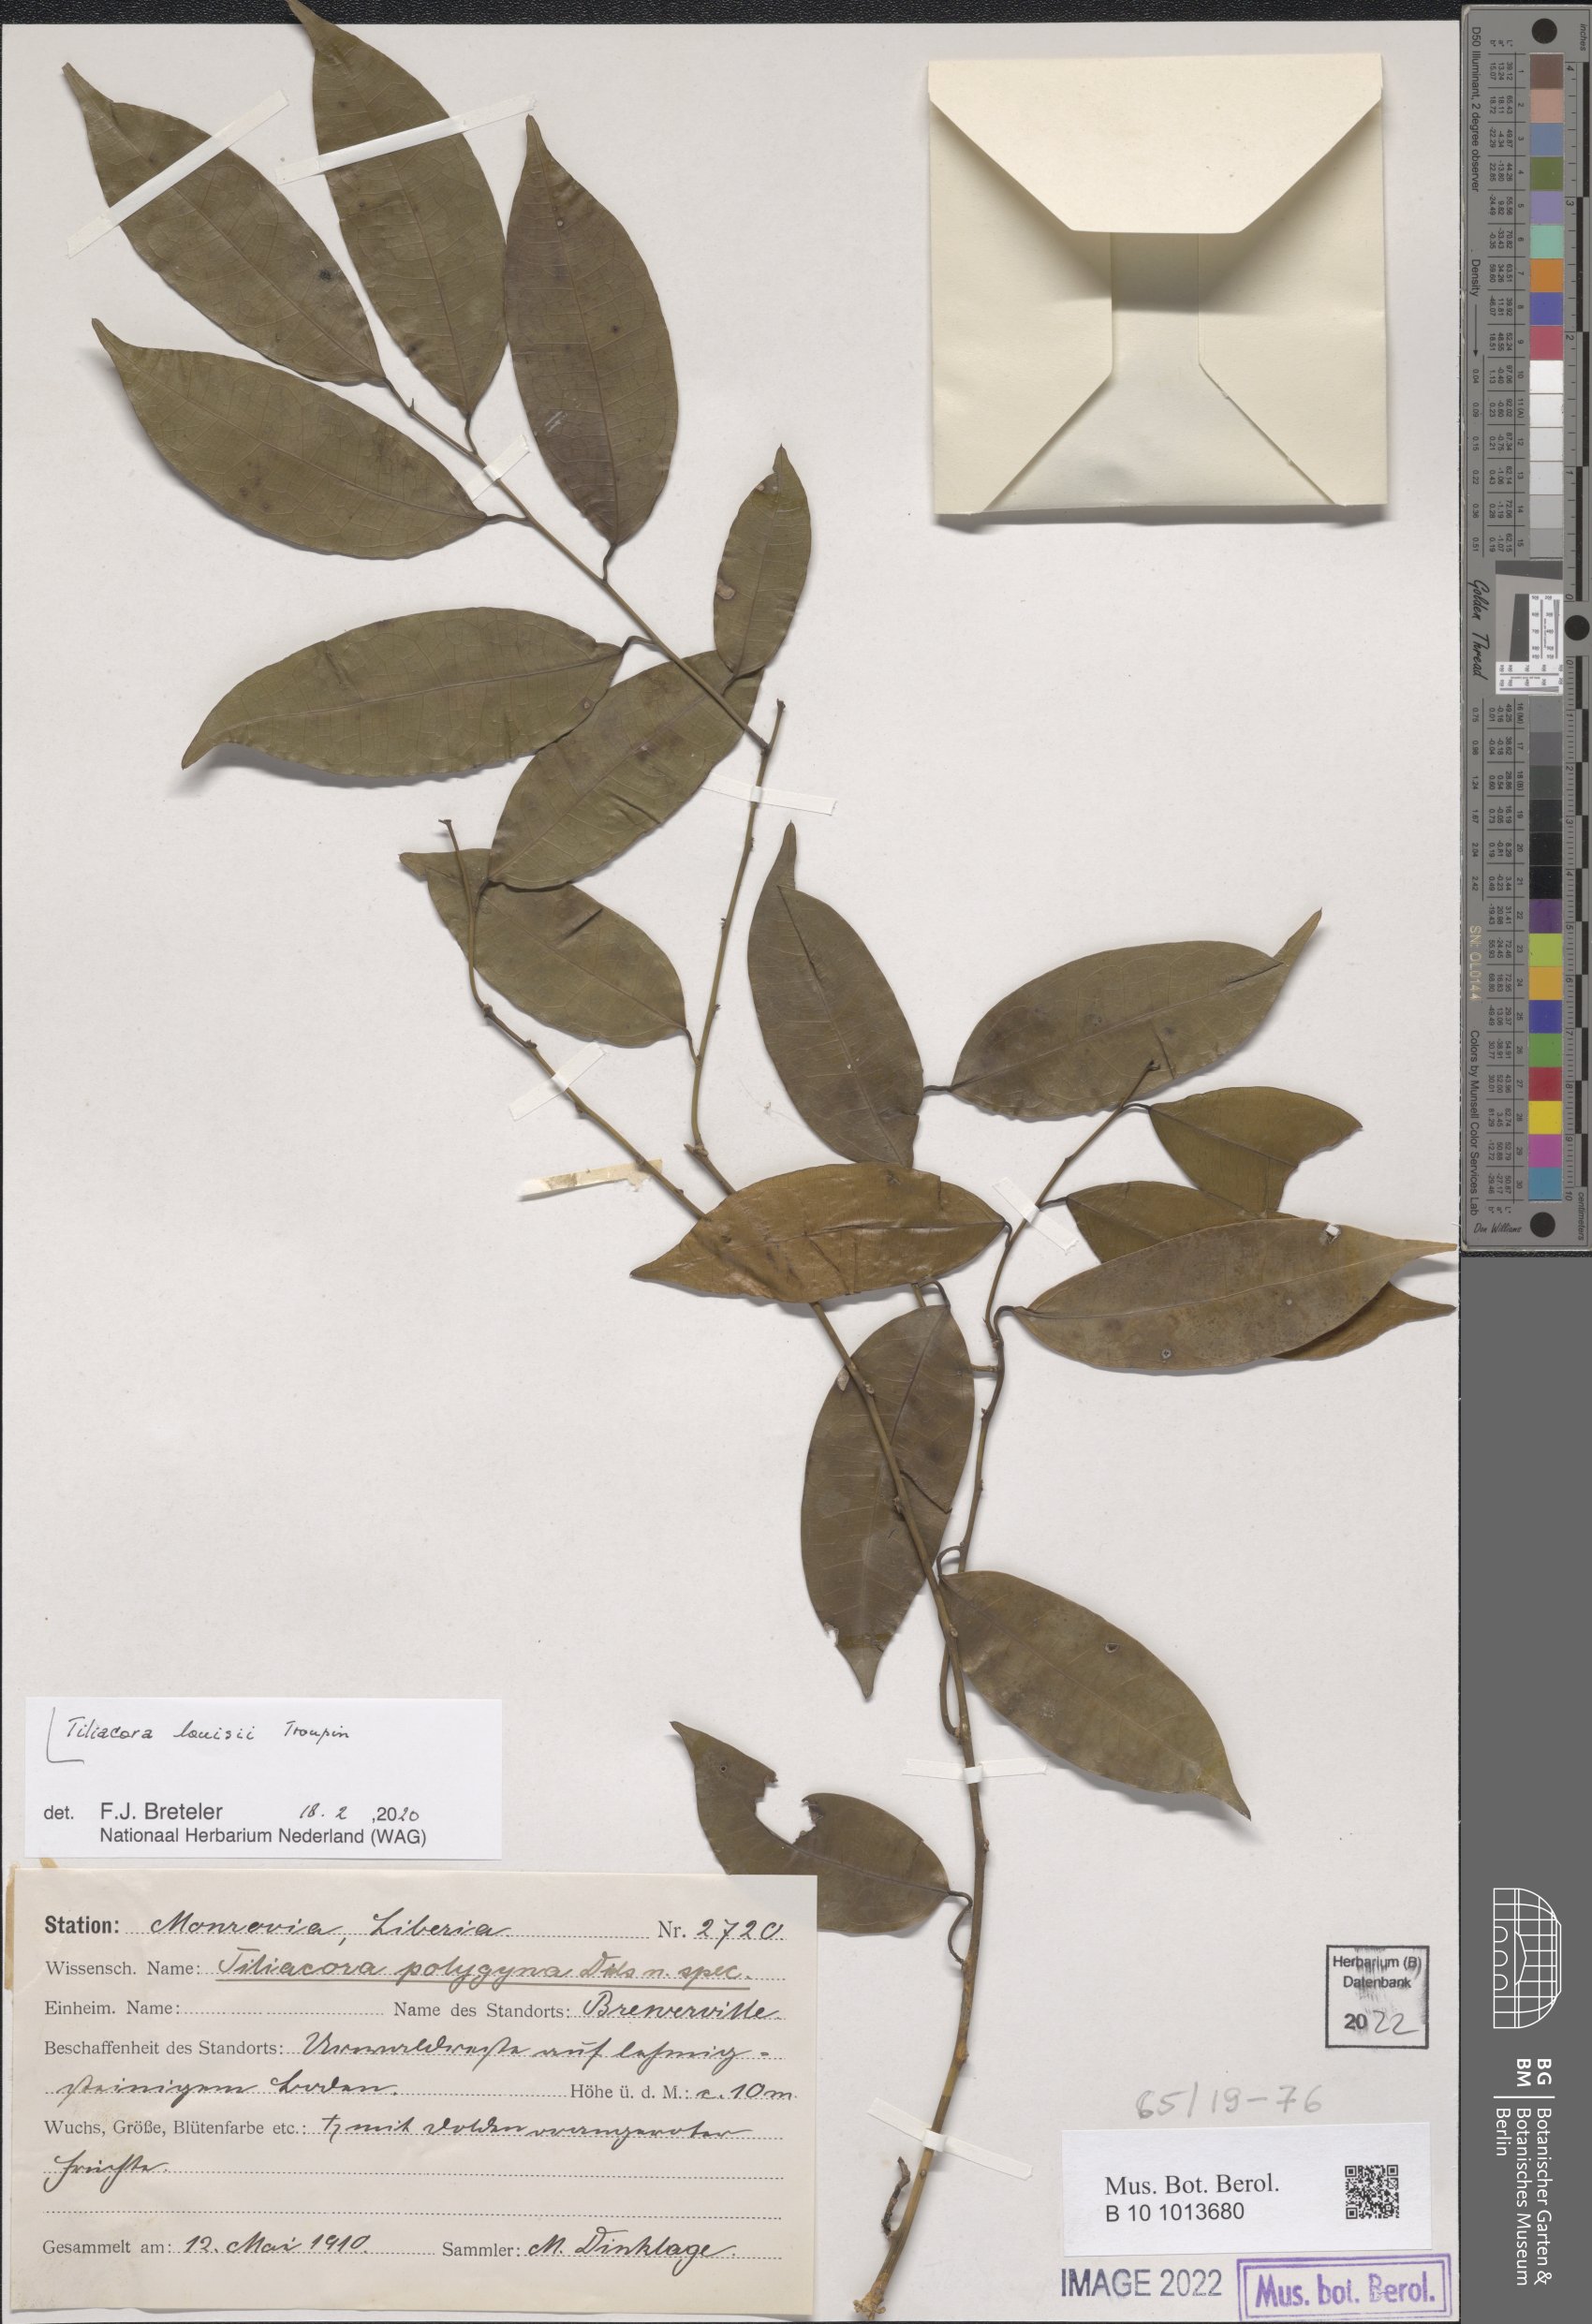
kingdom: Plantae
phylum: Tracheophyta
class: Magnoliopsida
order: Ranunculales
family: Menispermaceae
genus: Tiliacora
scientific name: Tiliacora louisii
